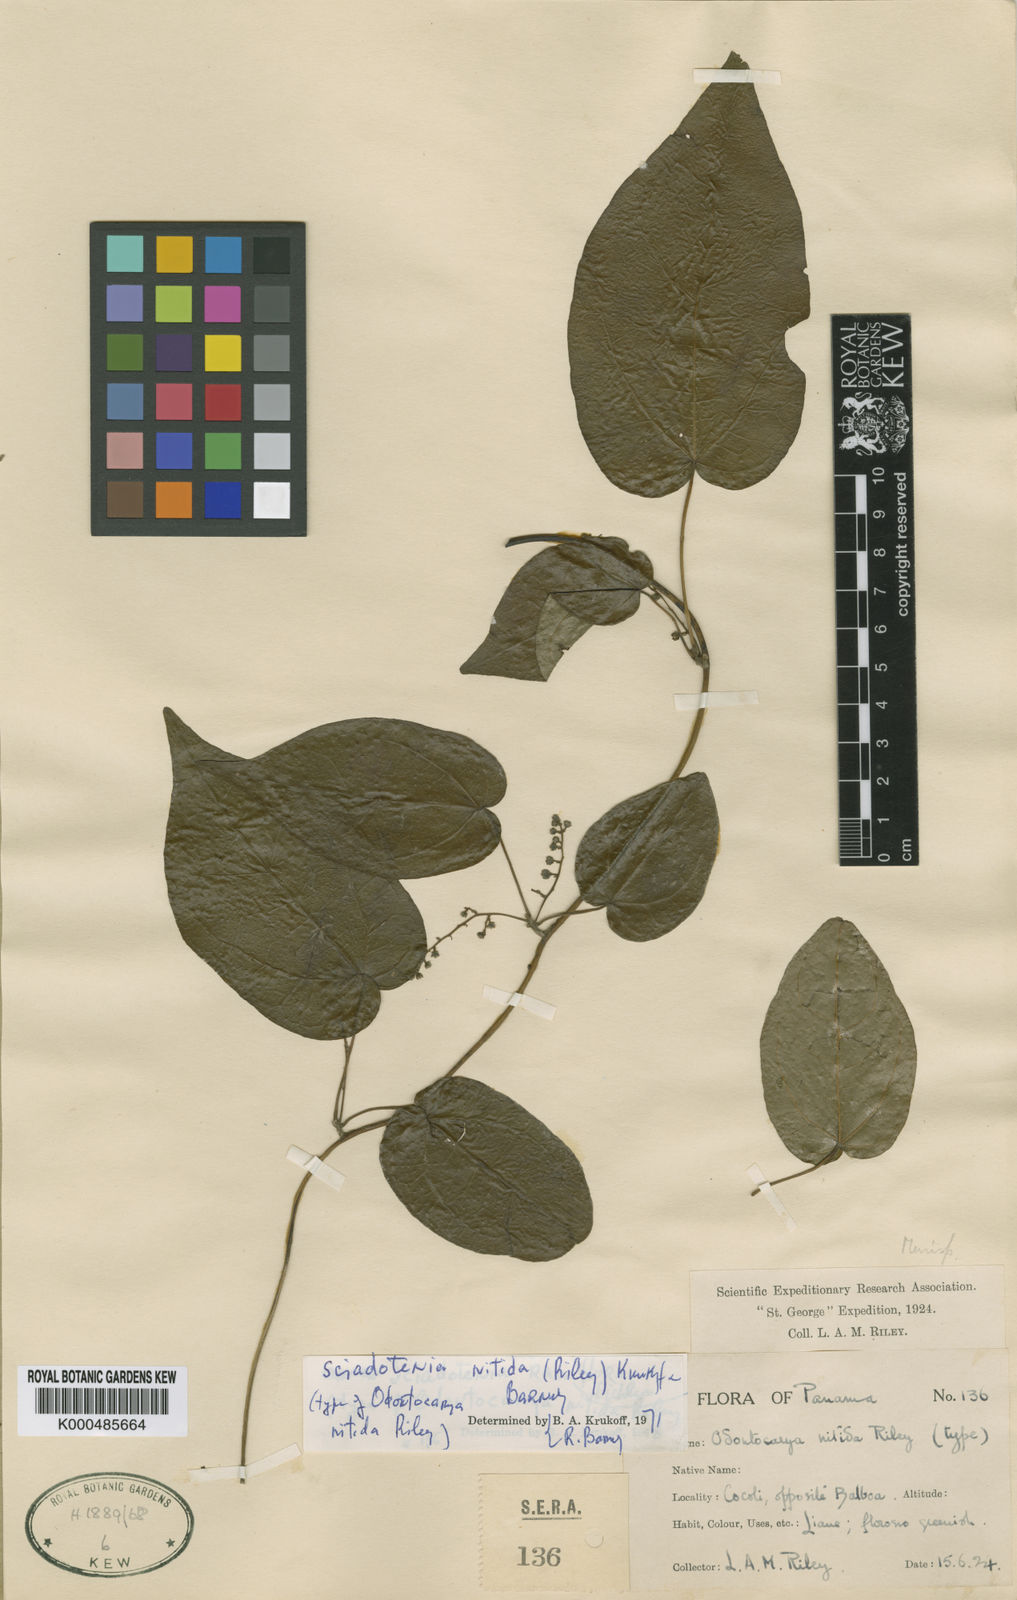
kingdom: Plantae
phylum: Tracheophyta
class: Magnoliopsida
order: Ranunculales
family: Menispermaceae
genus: Sciadotenia
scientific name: Sciadotenia nitida
